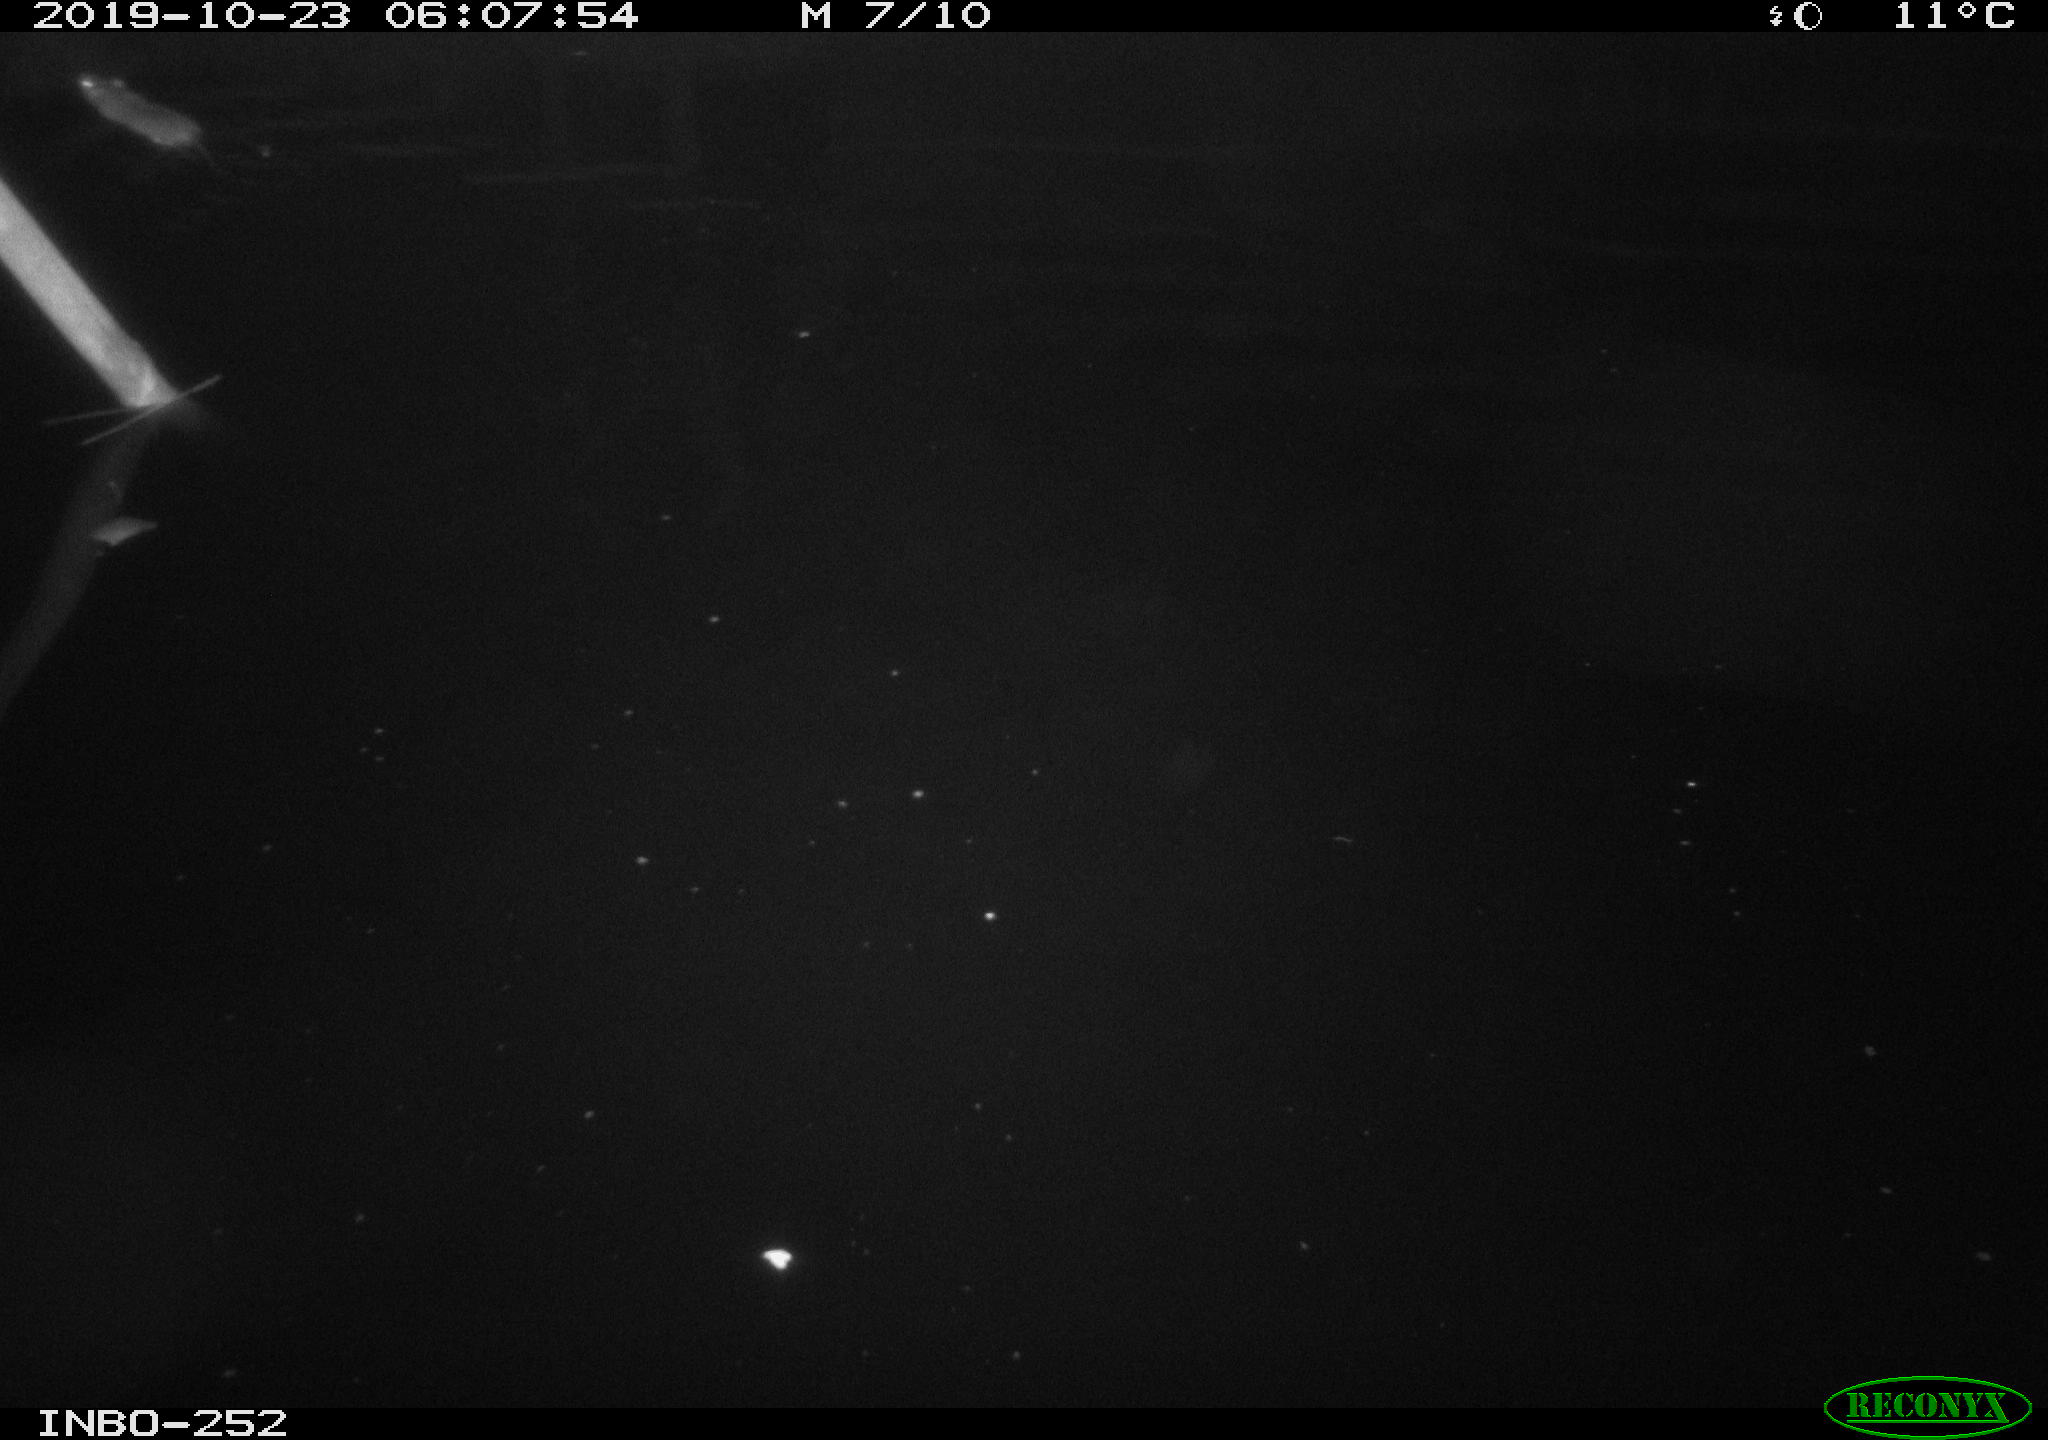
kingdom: Animalia
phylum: Chordata
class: Mammalia
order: Rodentia
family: Muridae
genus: Rattus
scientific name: Rattus norvegicus
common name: Brown rat
